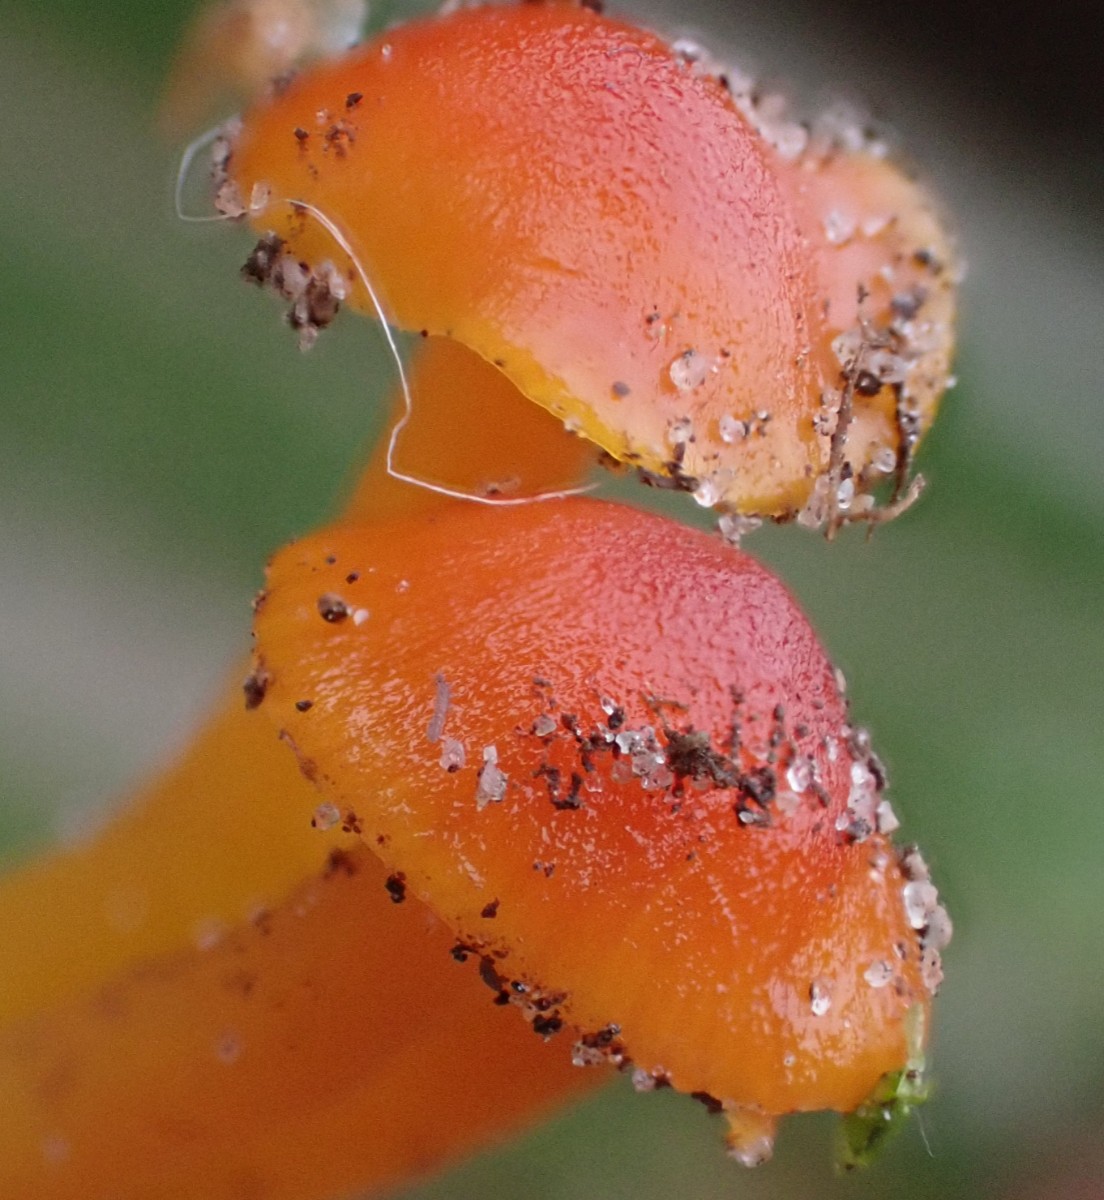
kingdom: Fungi
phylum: Basidiomycota
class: Agaricomycetes
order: Agaricales
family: Hygrophoraceae
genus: Hygrocybe
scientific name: Hygrocybe ceracea
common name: voksgul vokshat
